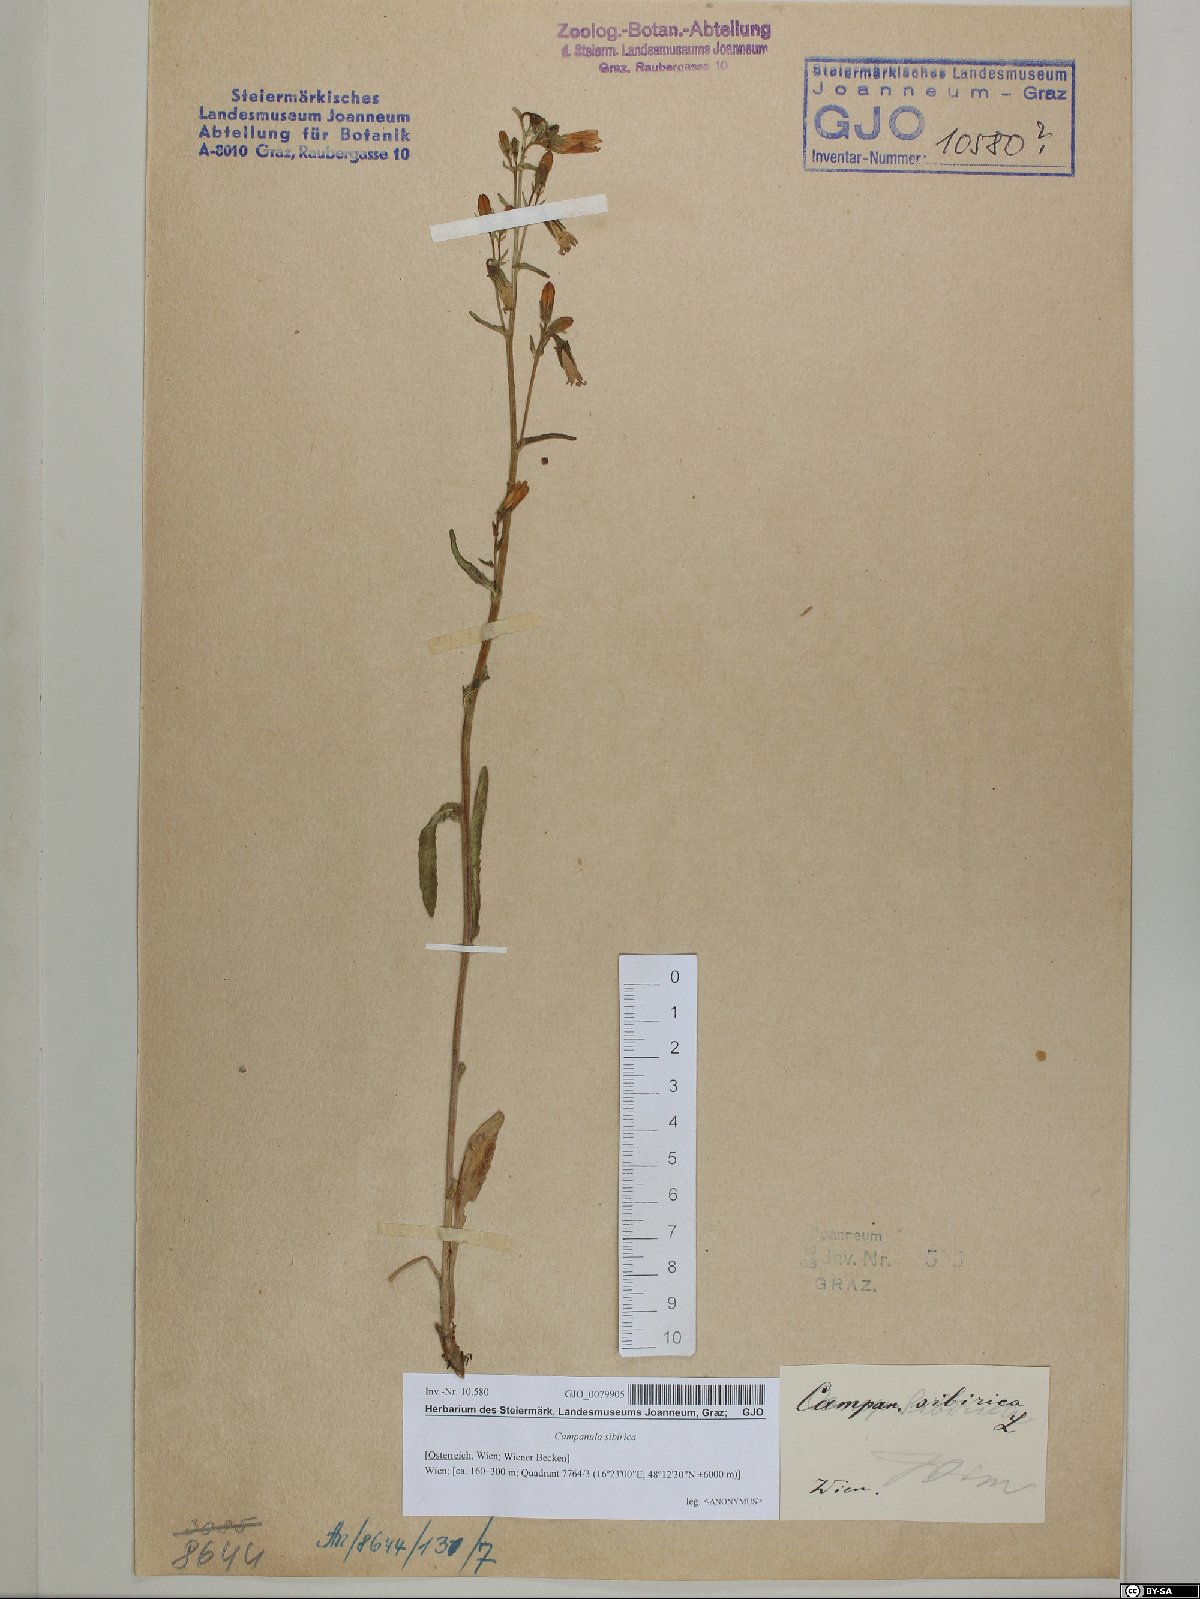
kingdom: Plantae
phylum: Tracheophyta
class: Magnoliopsida
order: Asterales
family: Campanulaceae
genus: Campanula
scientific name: Campanula sibirica
